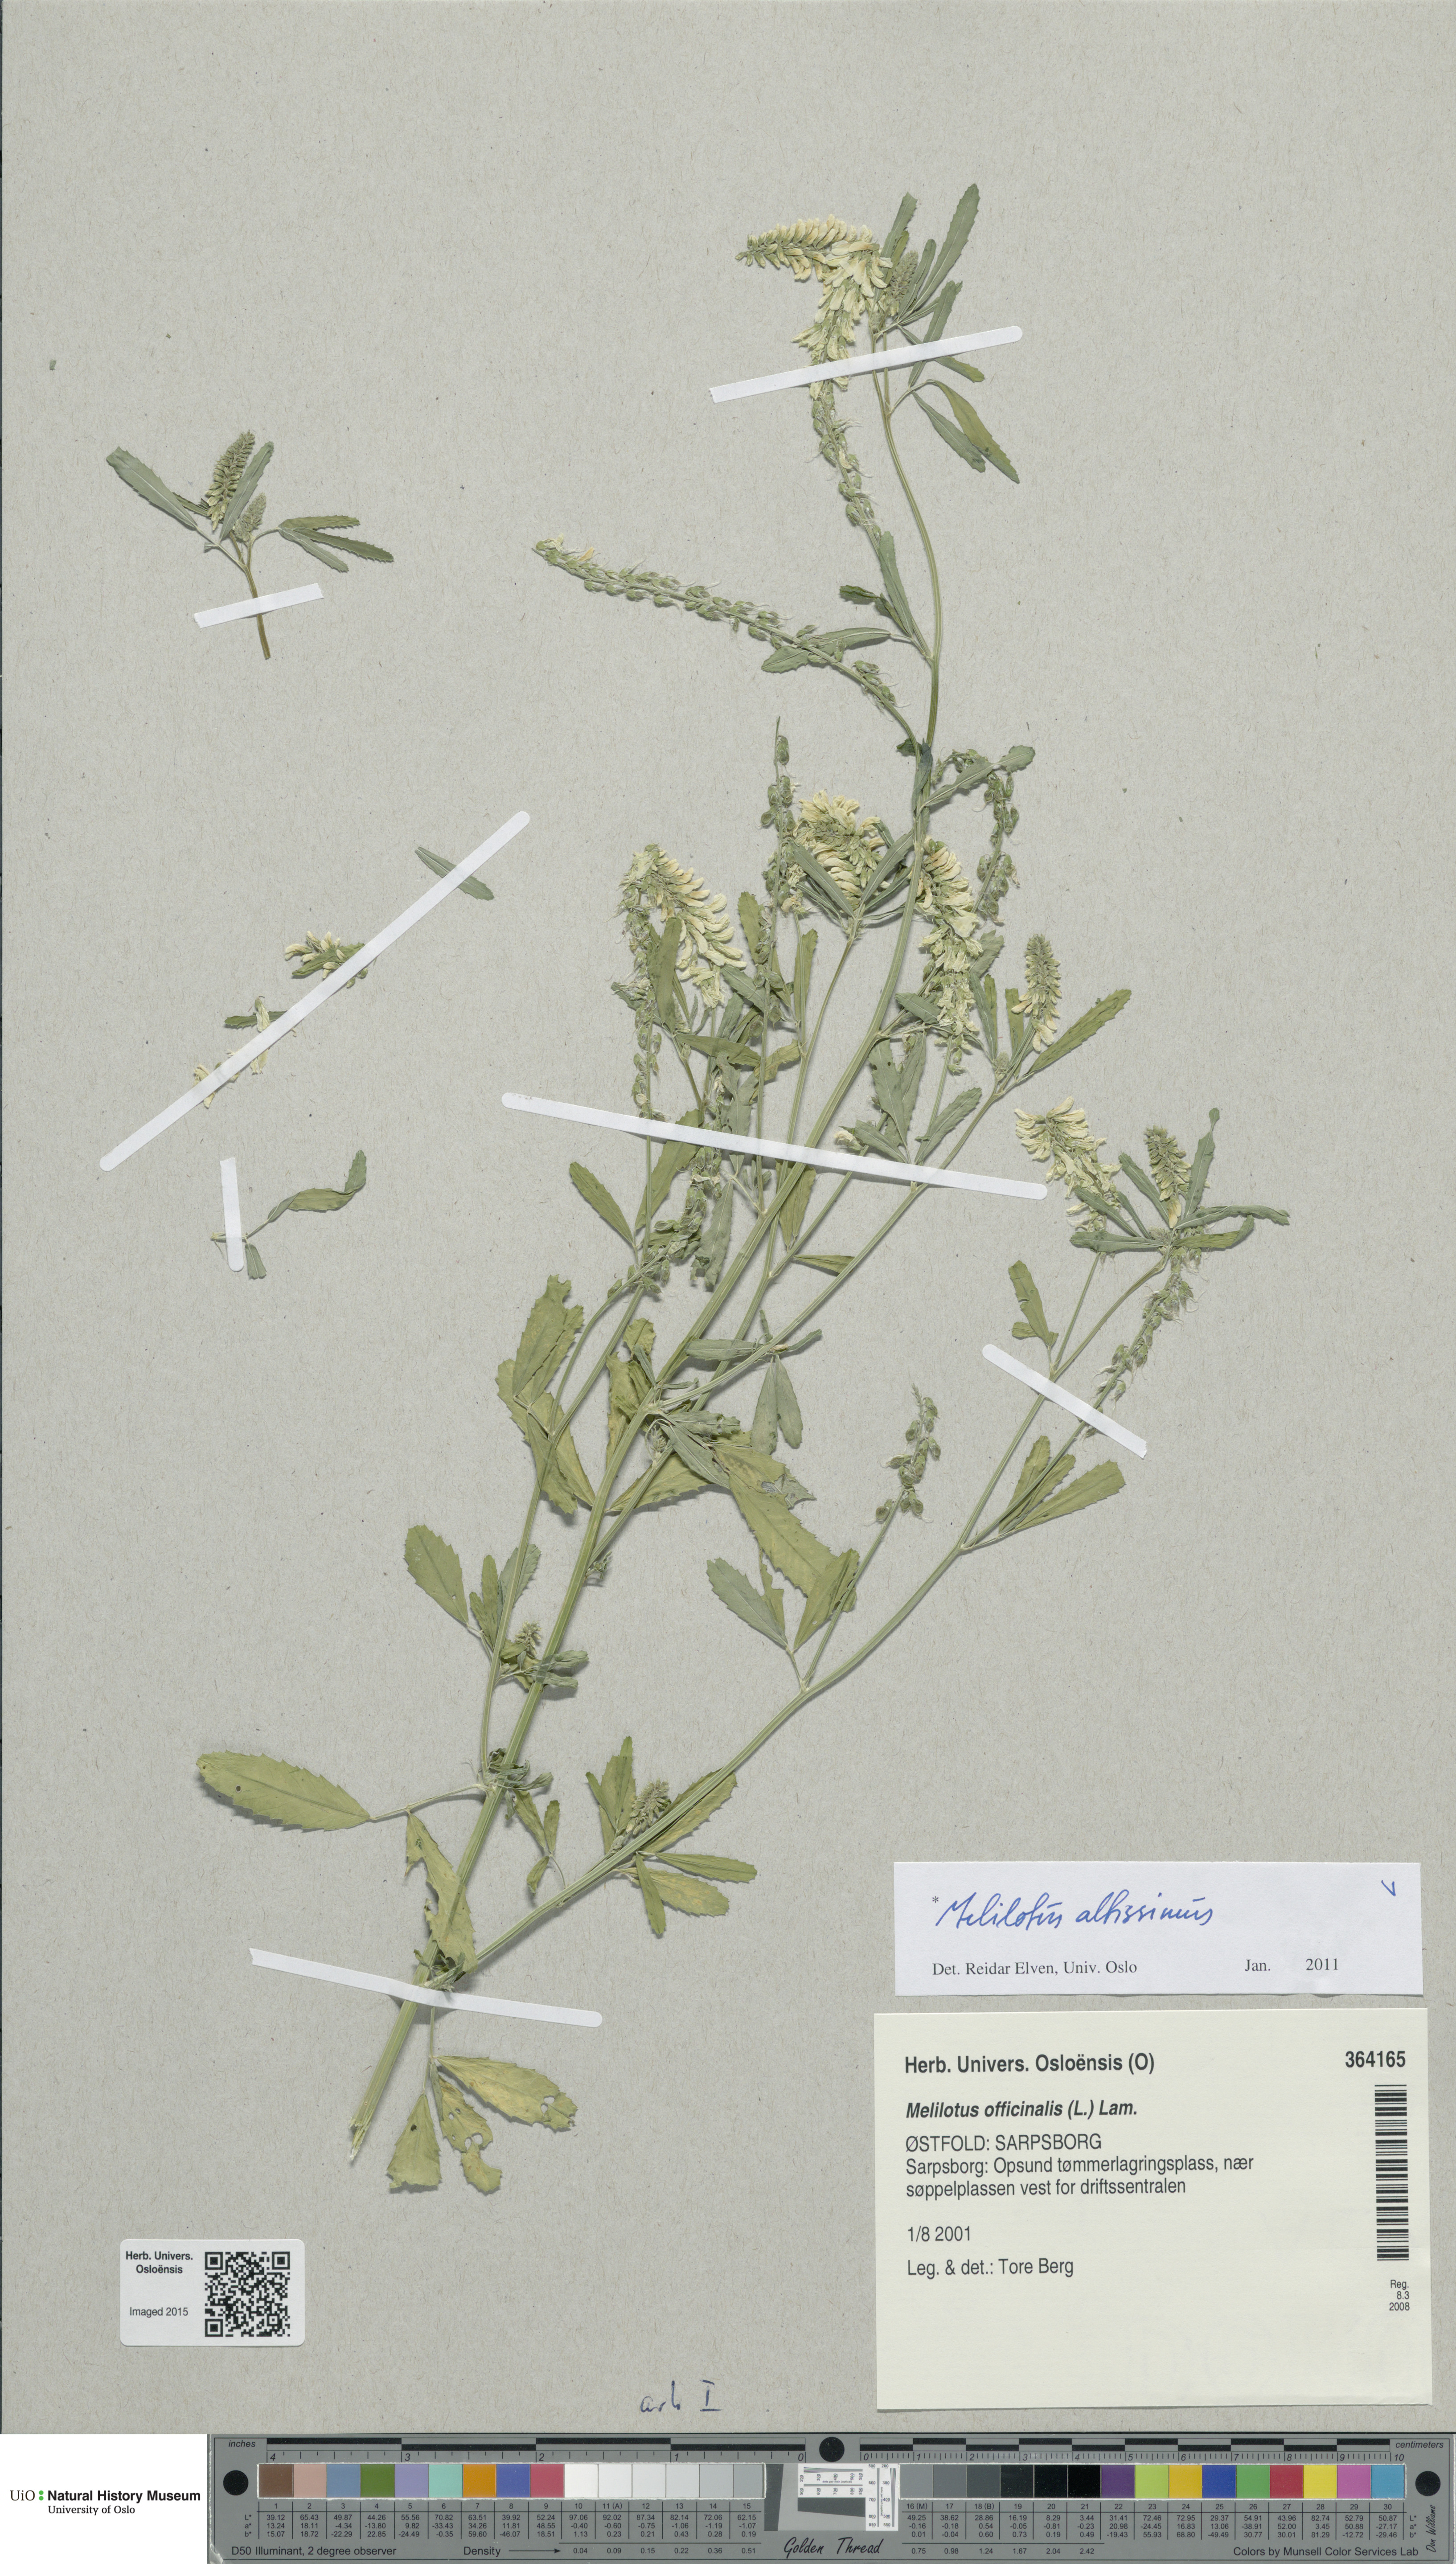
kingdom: Plantae
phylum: Tracheophyta
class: Magnoliopsida
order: Fabales
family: Fabaceae
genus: Melilotus
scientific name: Melilotus altissimus
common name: Tall melilot
